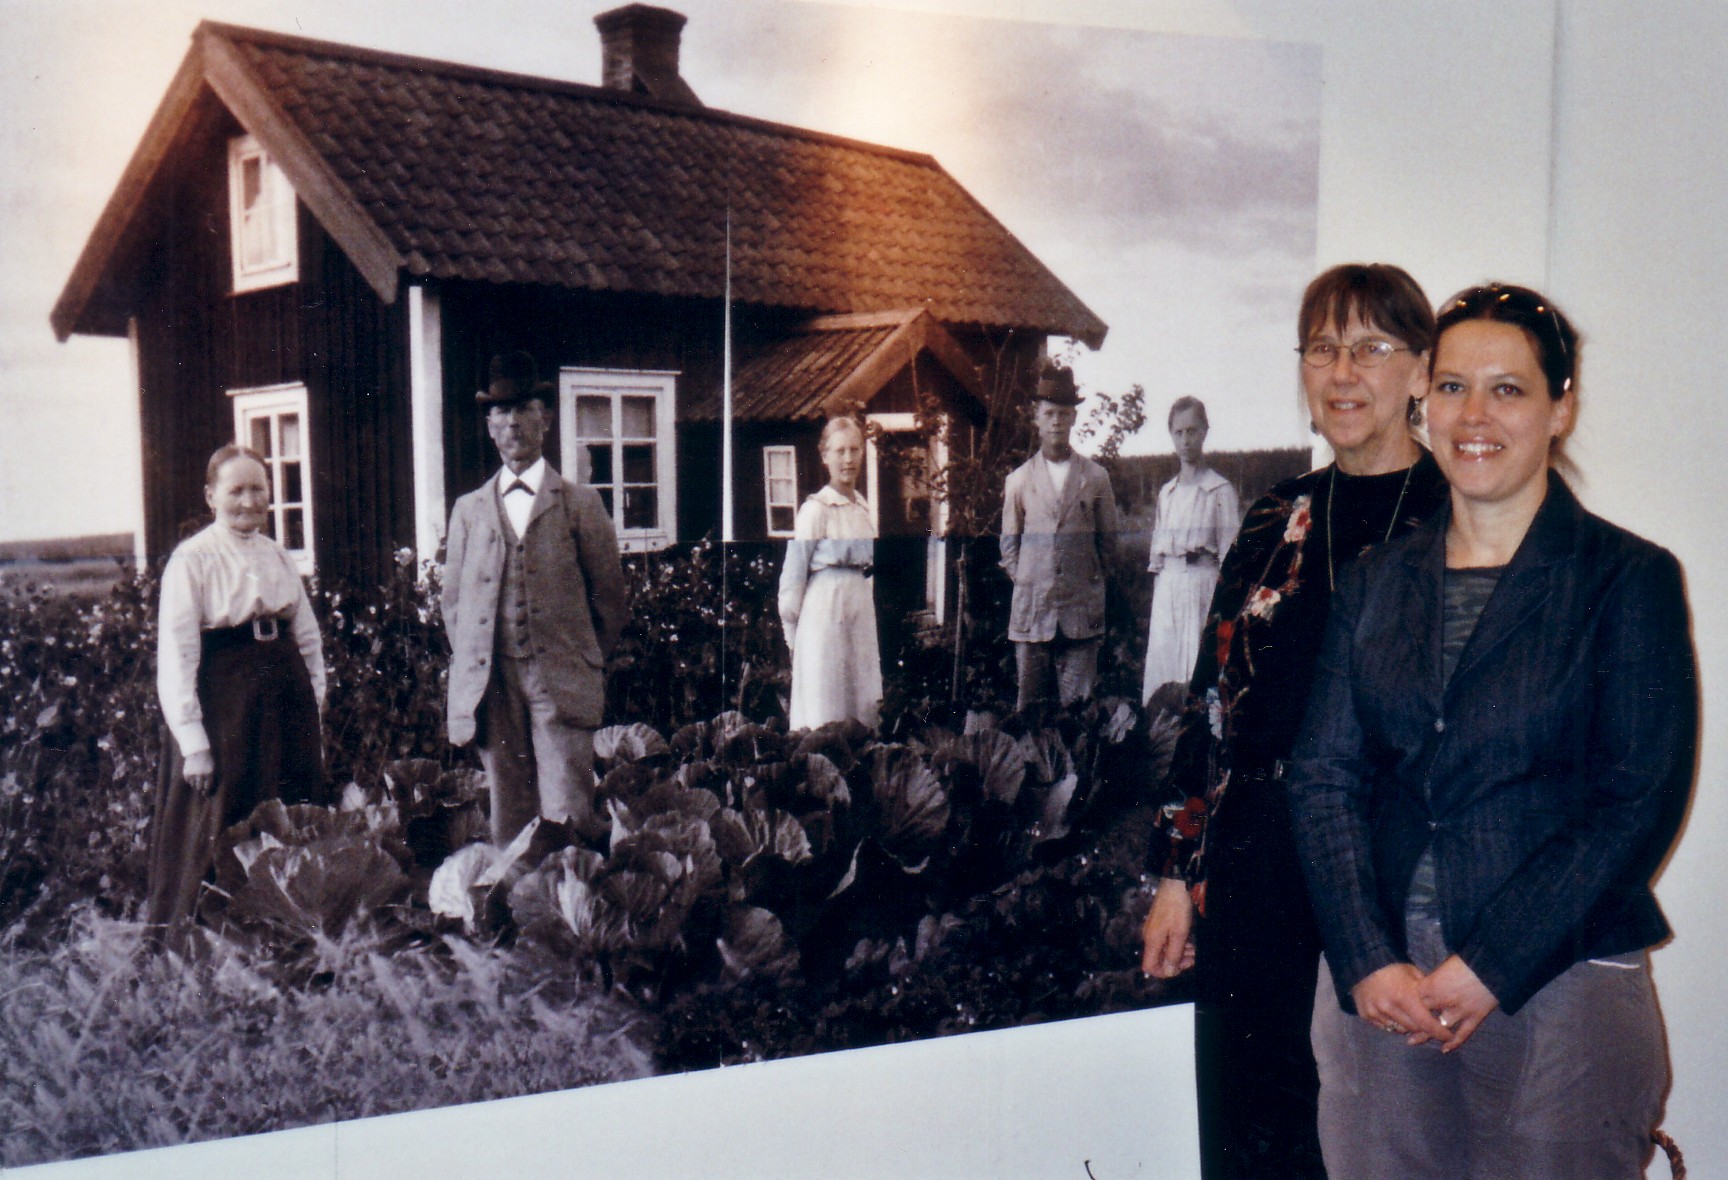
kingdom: Plantae
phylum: Tracheophyta
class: Magnoliopsida
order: Fabales
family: Fabaceae
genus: Vicia
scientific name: Vicia faba
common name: Broad bean
